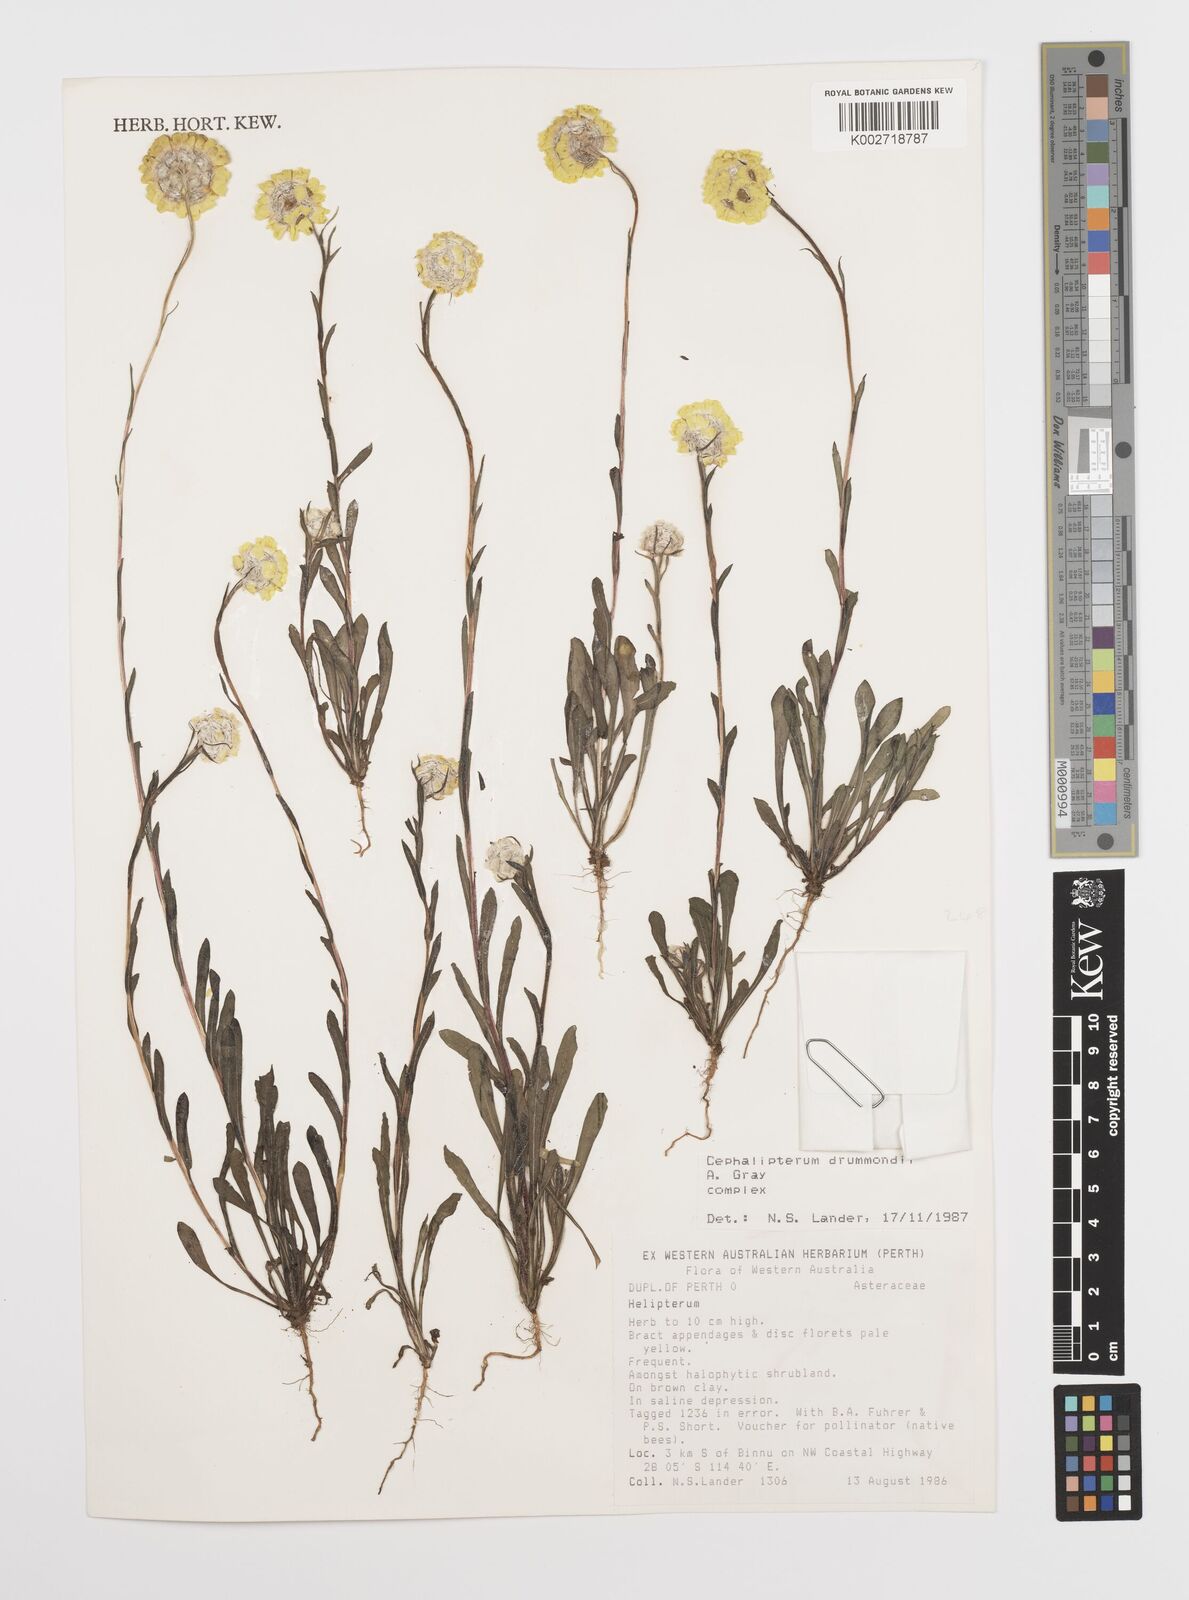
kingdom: Plantae
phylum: Tracheophyta
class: Magnoliopsida
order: Asterales
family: Asteraceae
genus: Cephalipterum
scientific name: Cephalipterum drummondii
